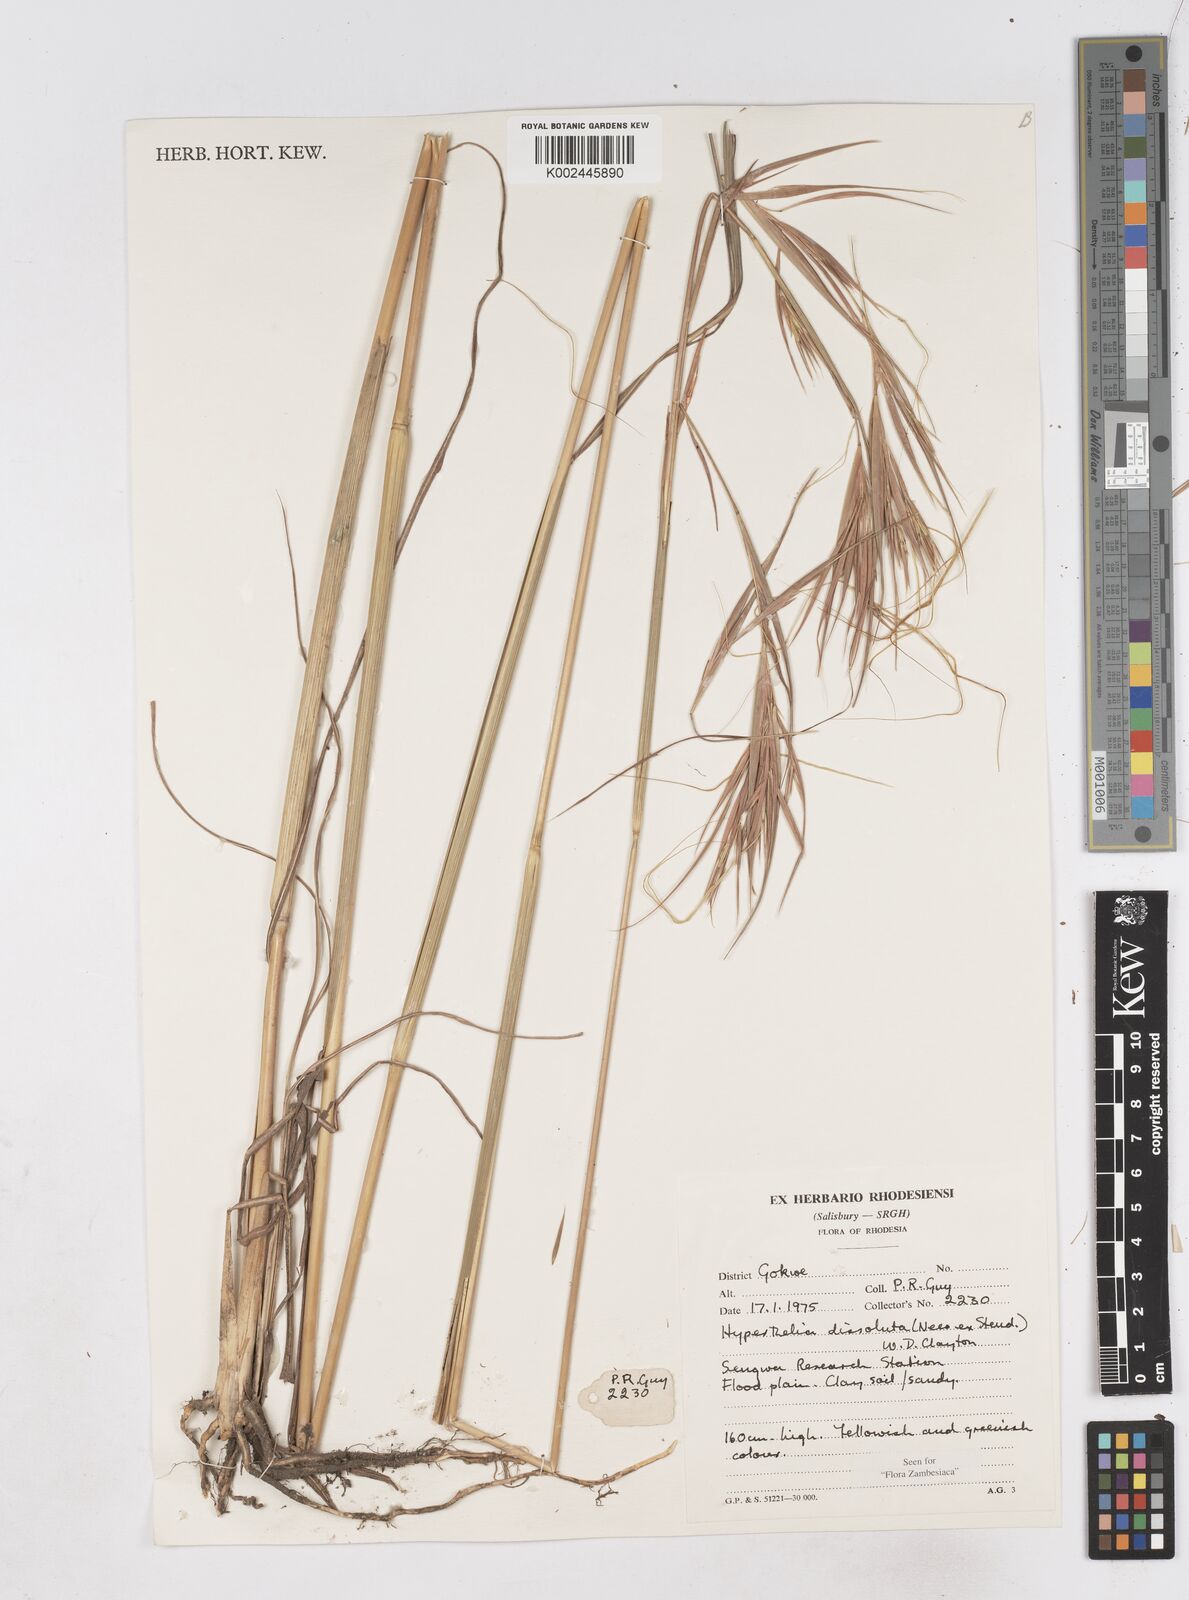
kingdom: Plantae
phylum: Tracheophyta
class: Liliopsida
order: Poales
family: Poaceae
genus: Hyperthelia
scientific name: Hyperthelia dissoluta
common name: Yellow thatching grass
